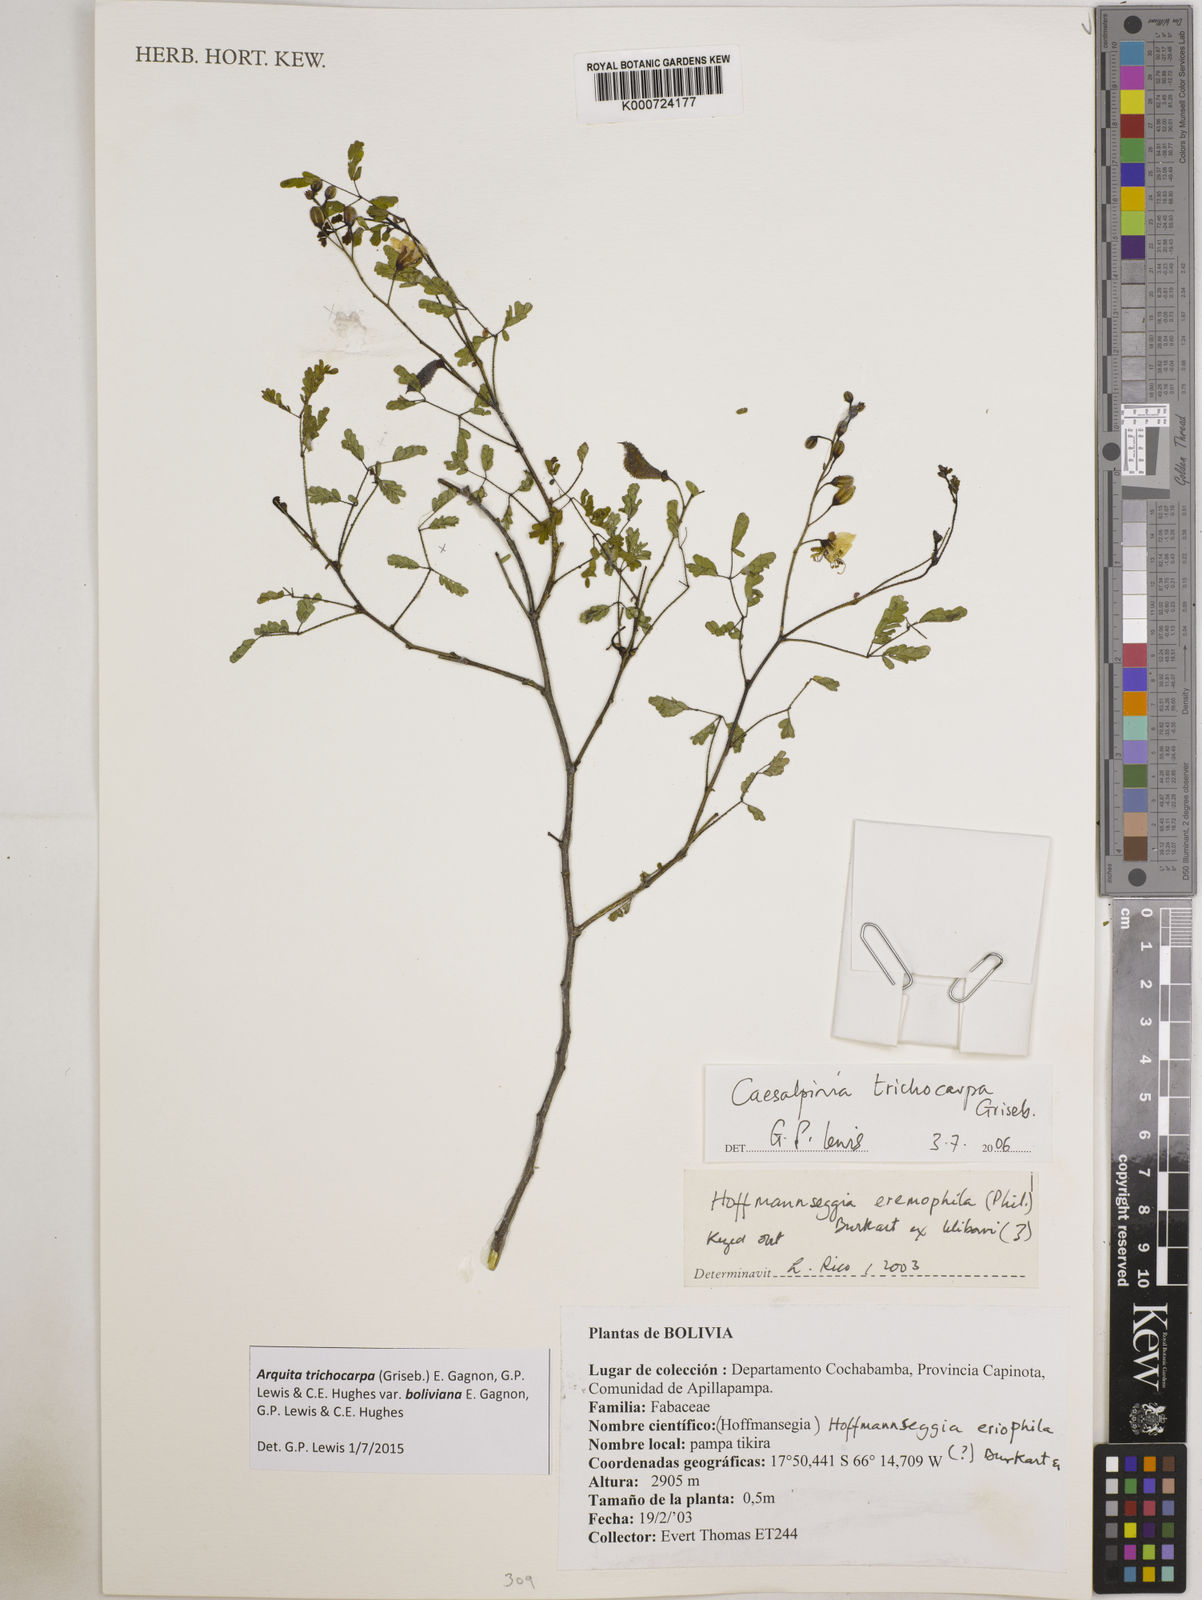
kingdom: Plantae
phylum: Tracheophyta
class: Magnoliopsida
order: Fabales
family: Fabaceae
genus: Arquita
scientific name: Arquita trichocarpa
